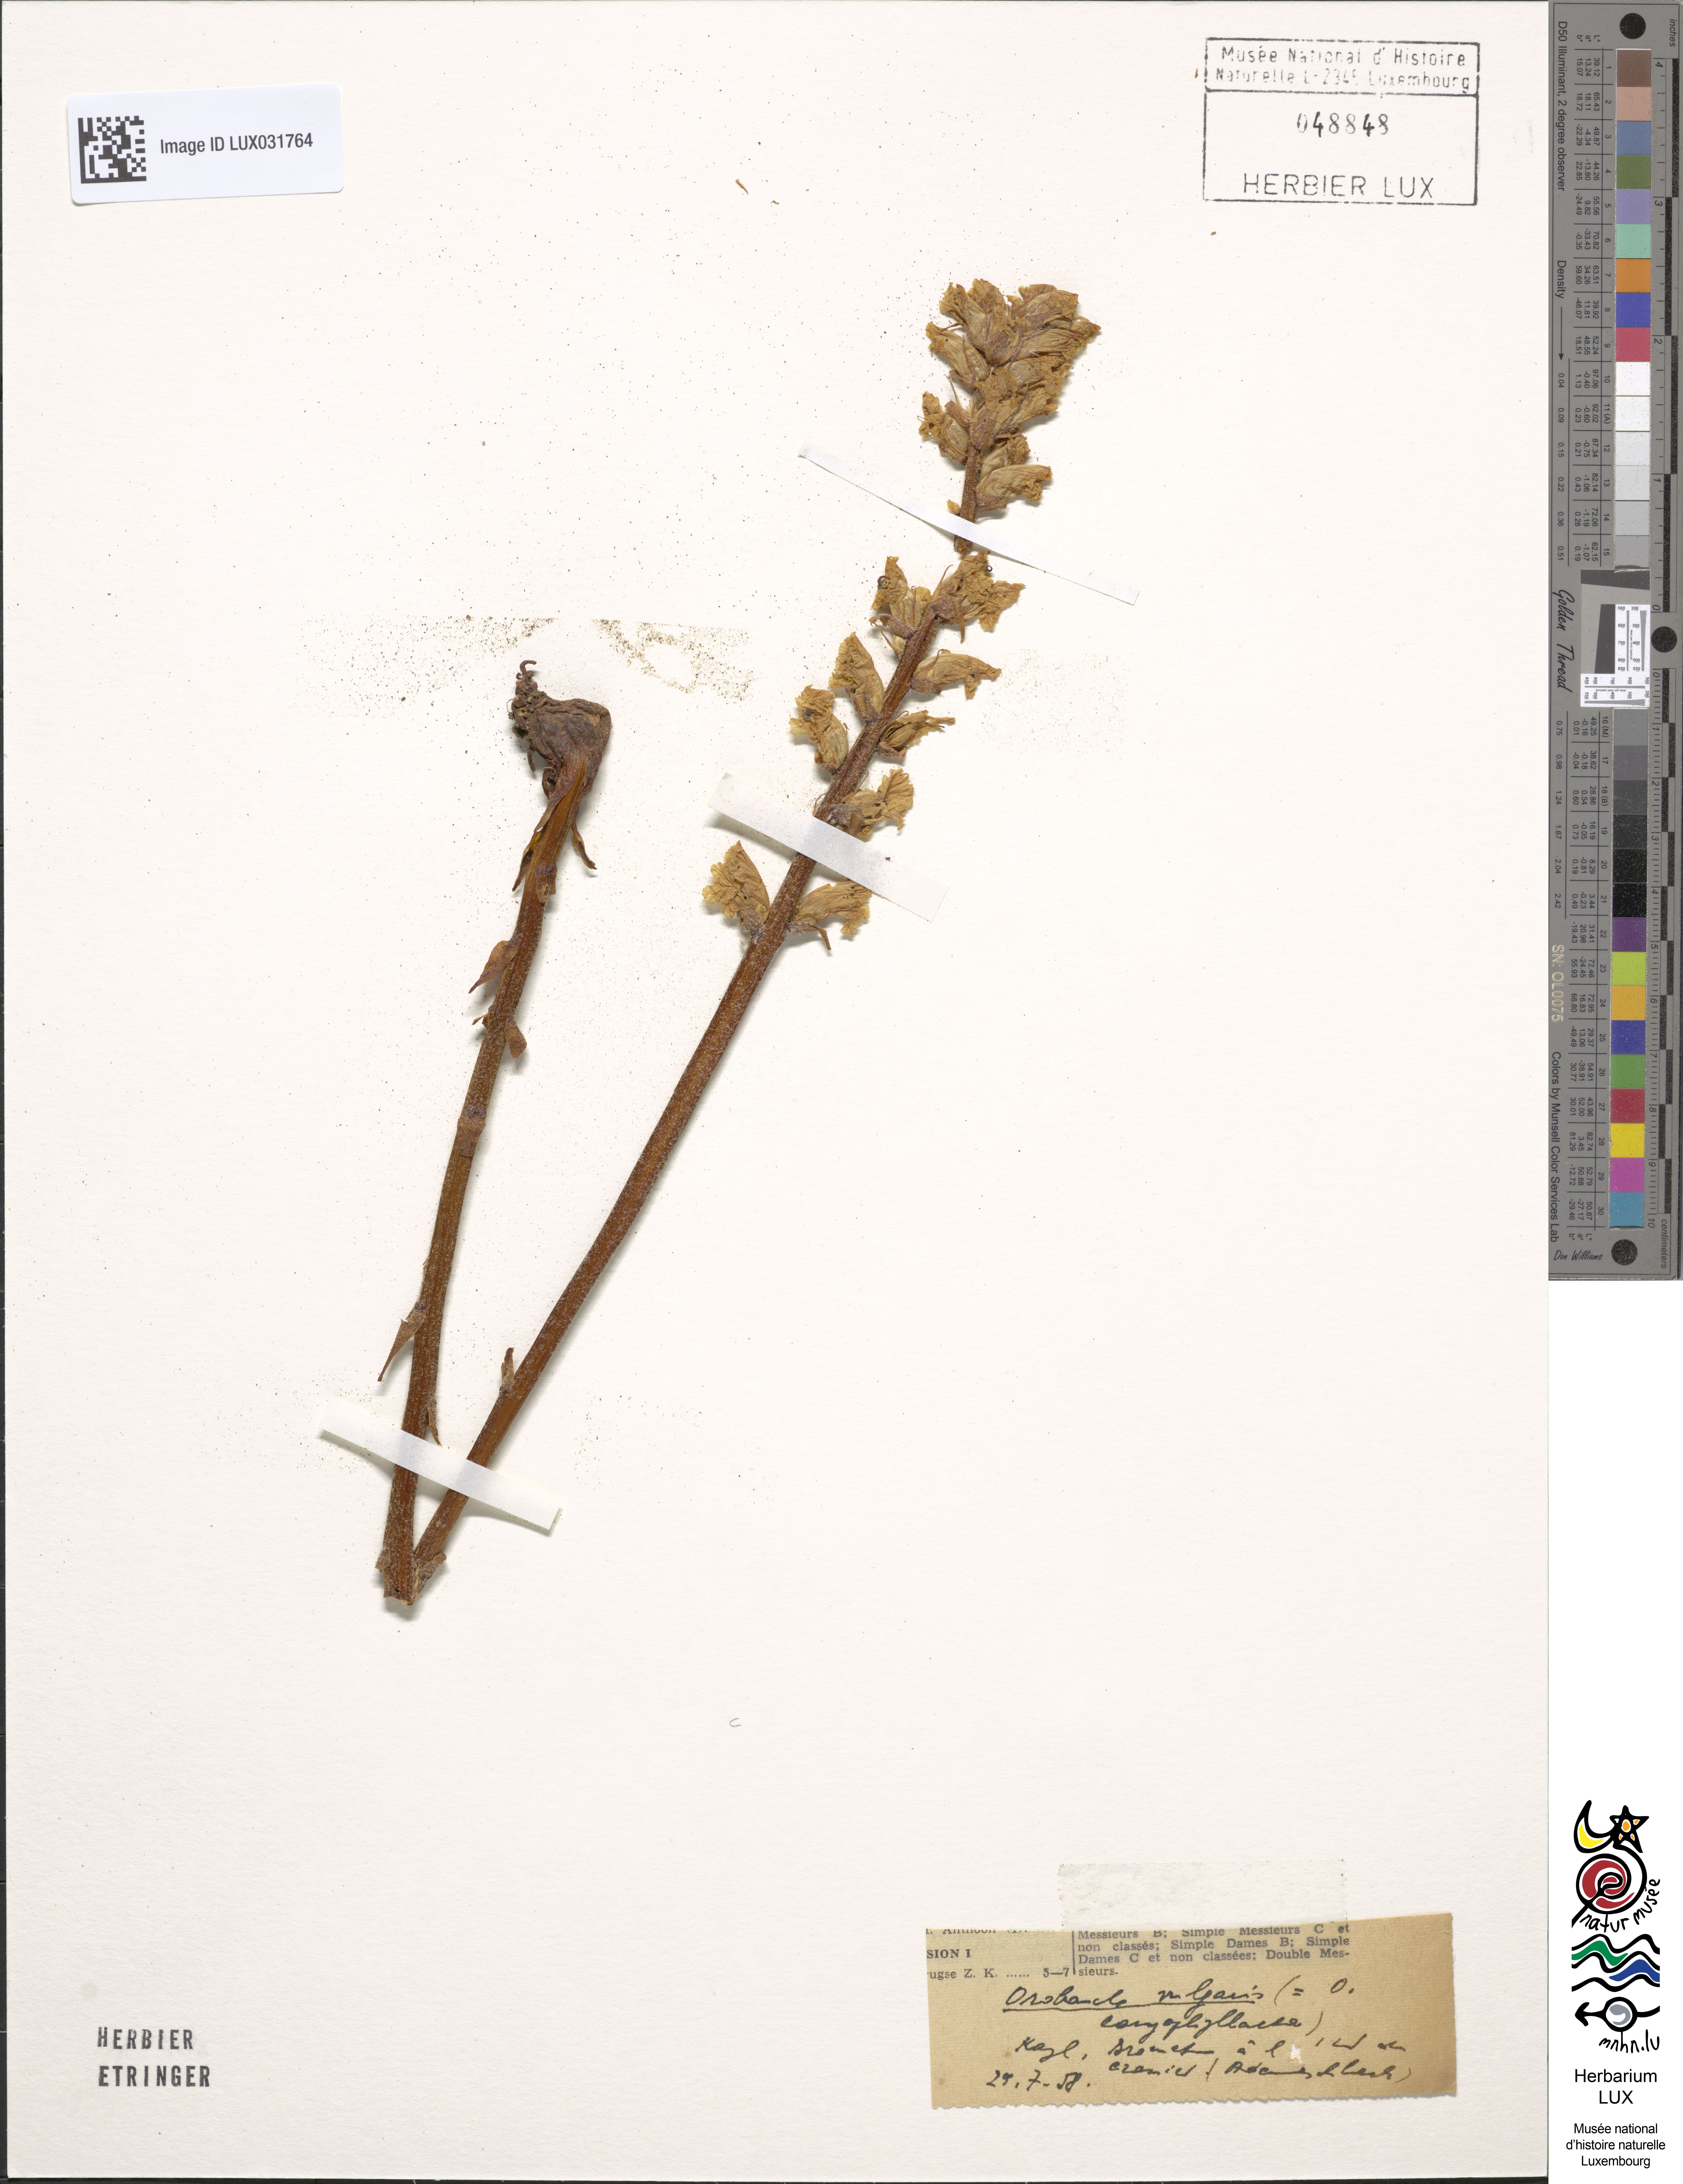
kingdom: Plantae
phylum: Tracheophyta
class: Magnoliopsida
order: Lamiales
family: Orobanchaceae
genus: Orobanche
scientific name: Orobanche caryophyllacea
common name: Bedstraw broomrape
